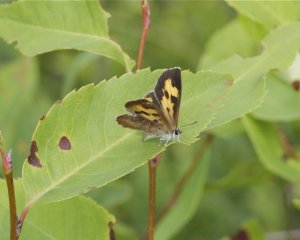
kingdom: Animalia
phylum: Arthropoda
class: Insecta
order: Lepidoptera
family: Lycaenidae
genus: Feniseca
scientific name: Feniseca tarquinius
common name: Harvester
